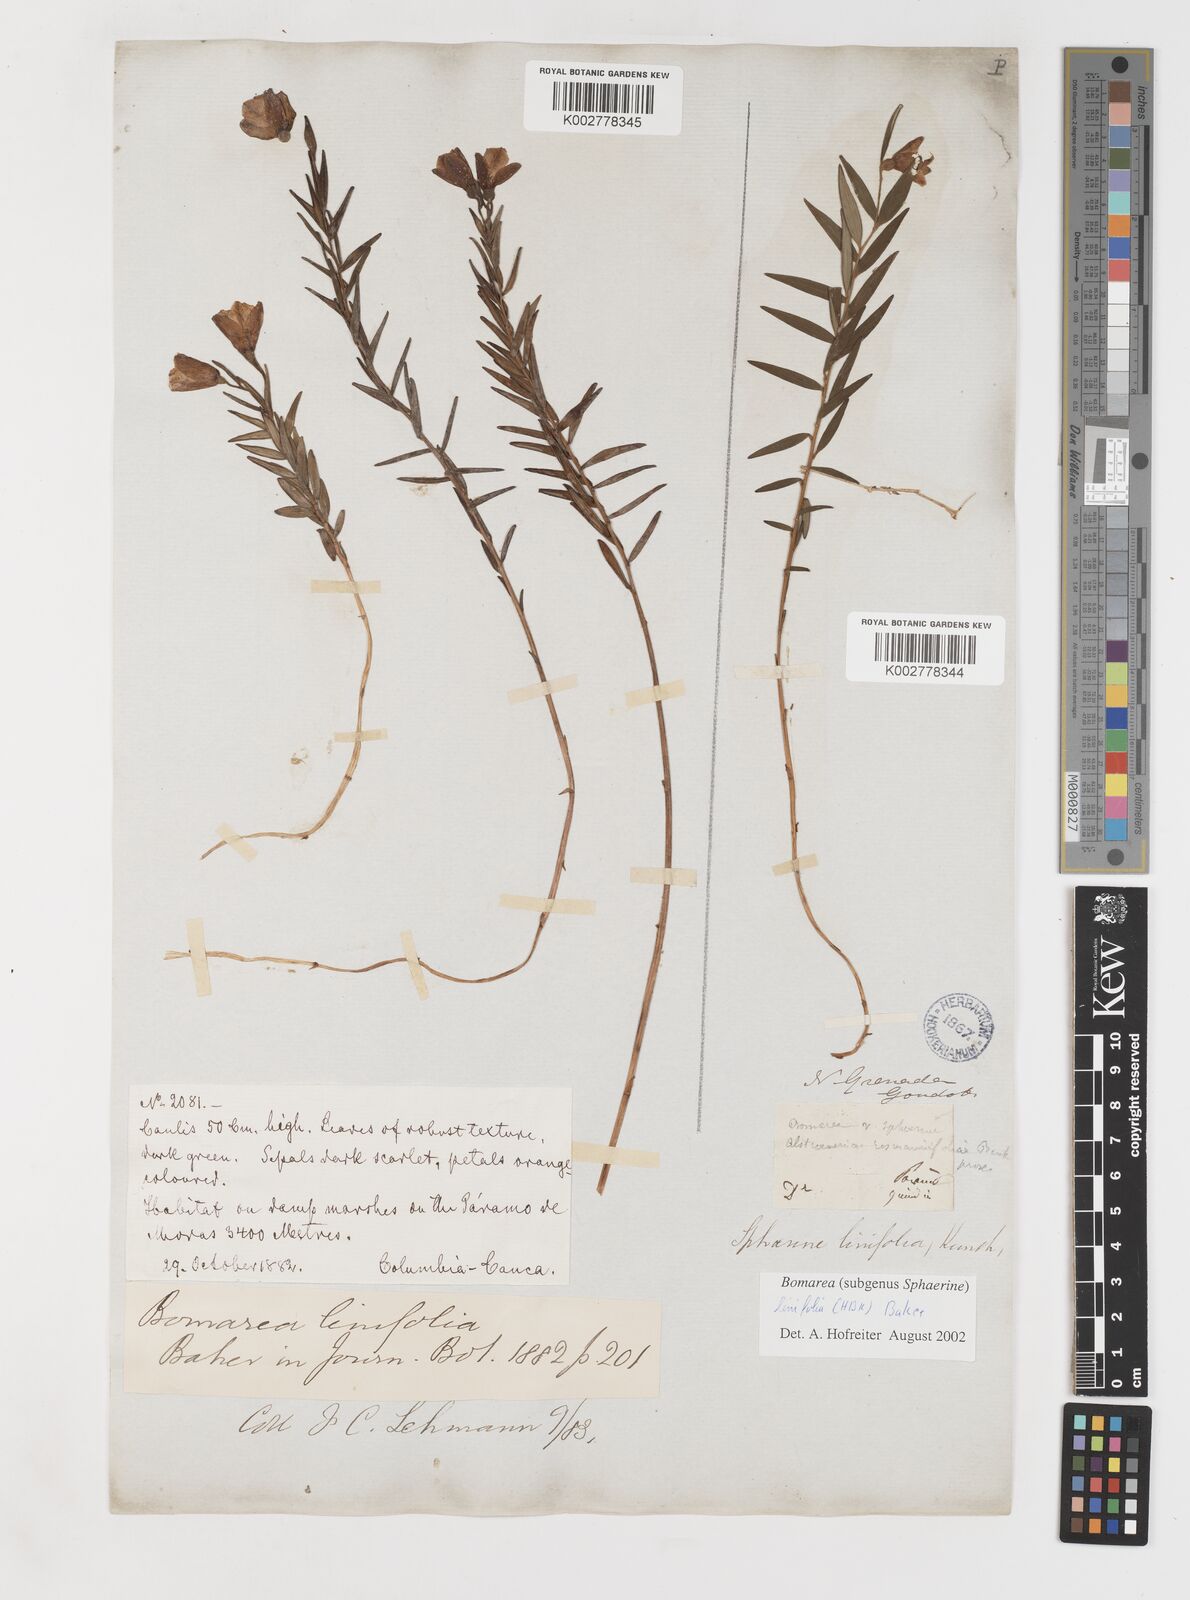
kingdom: Plantae
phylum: Tracheophyta
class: Liliopsida
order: Liliales
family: Alstroemeriaceae
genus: Bomarea
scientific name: Bomarea linifolia
